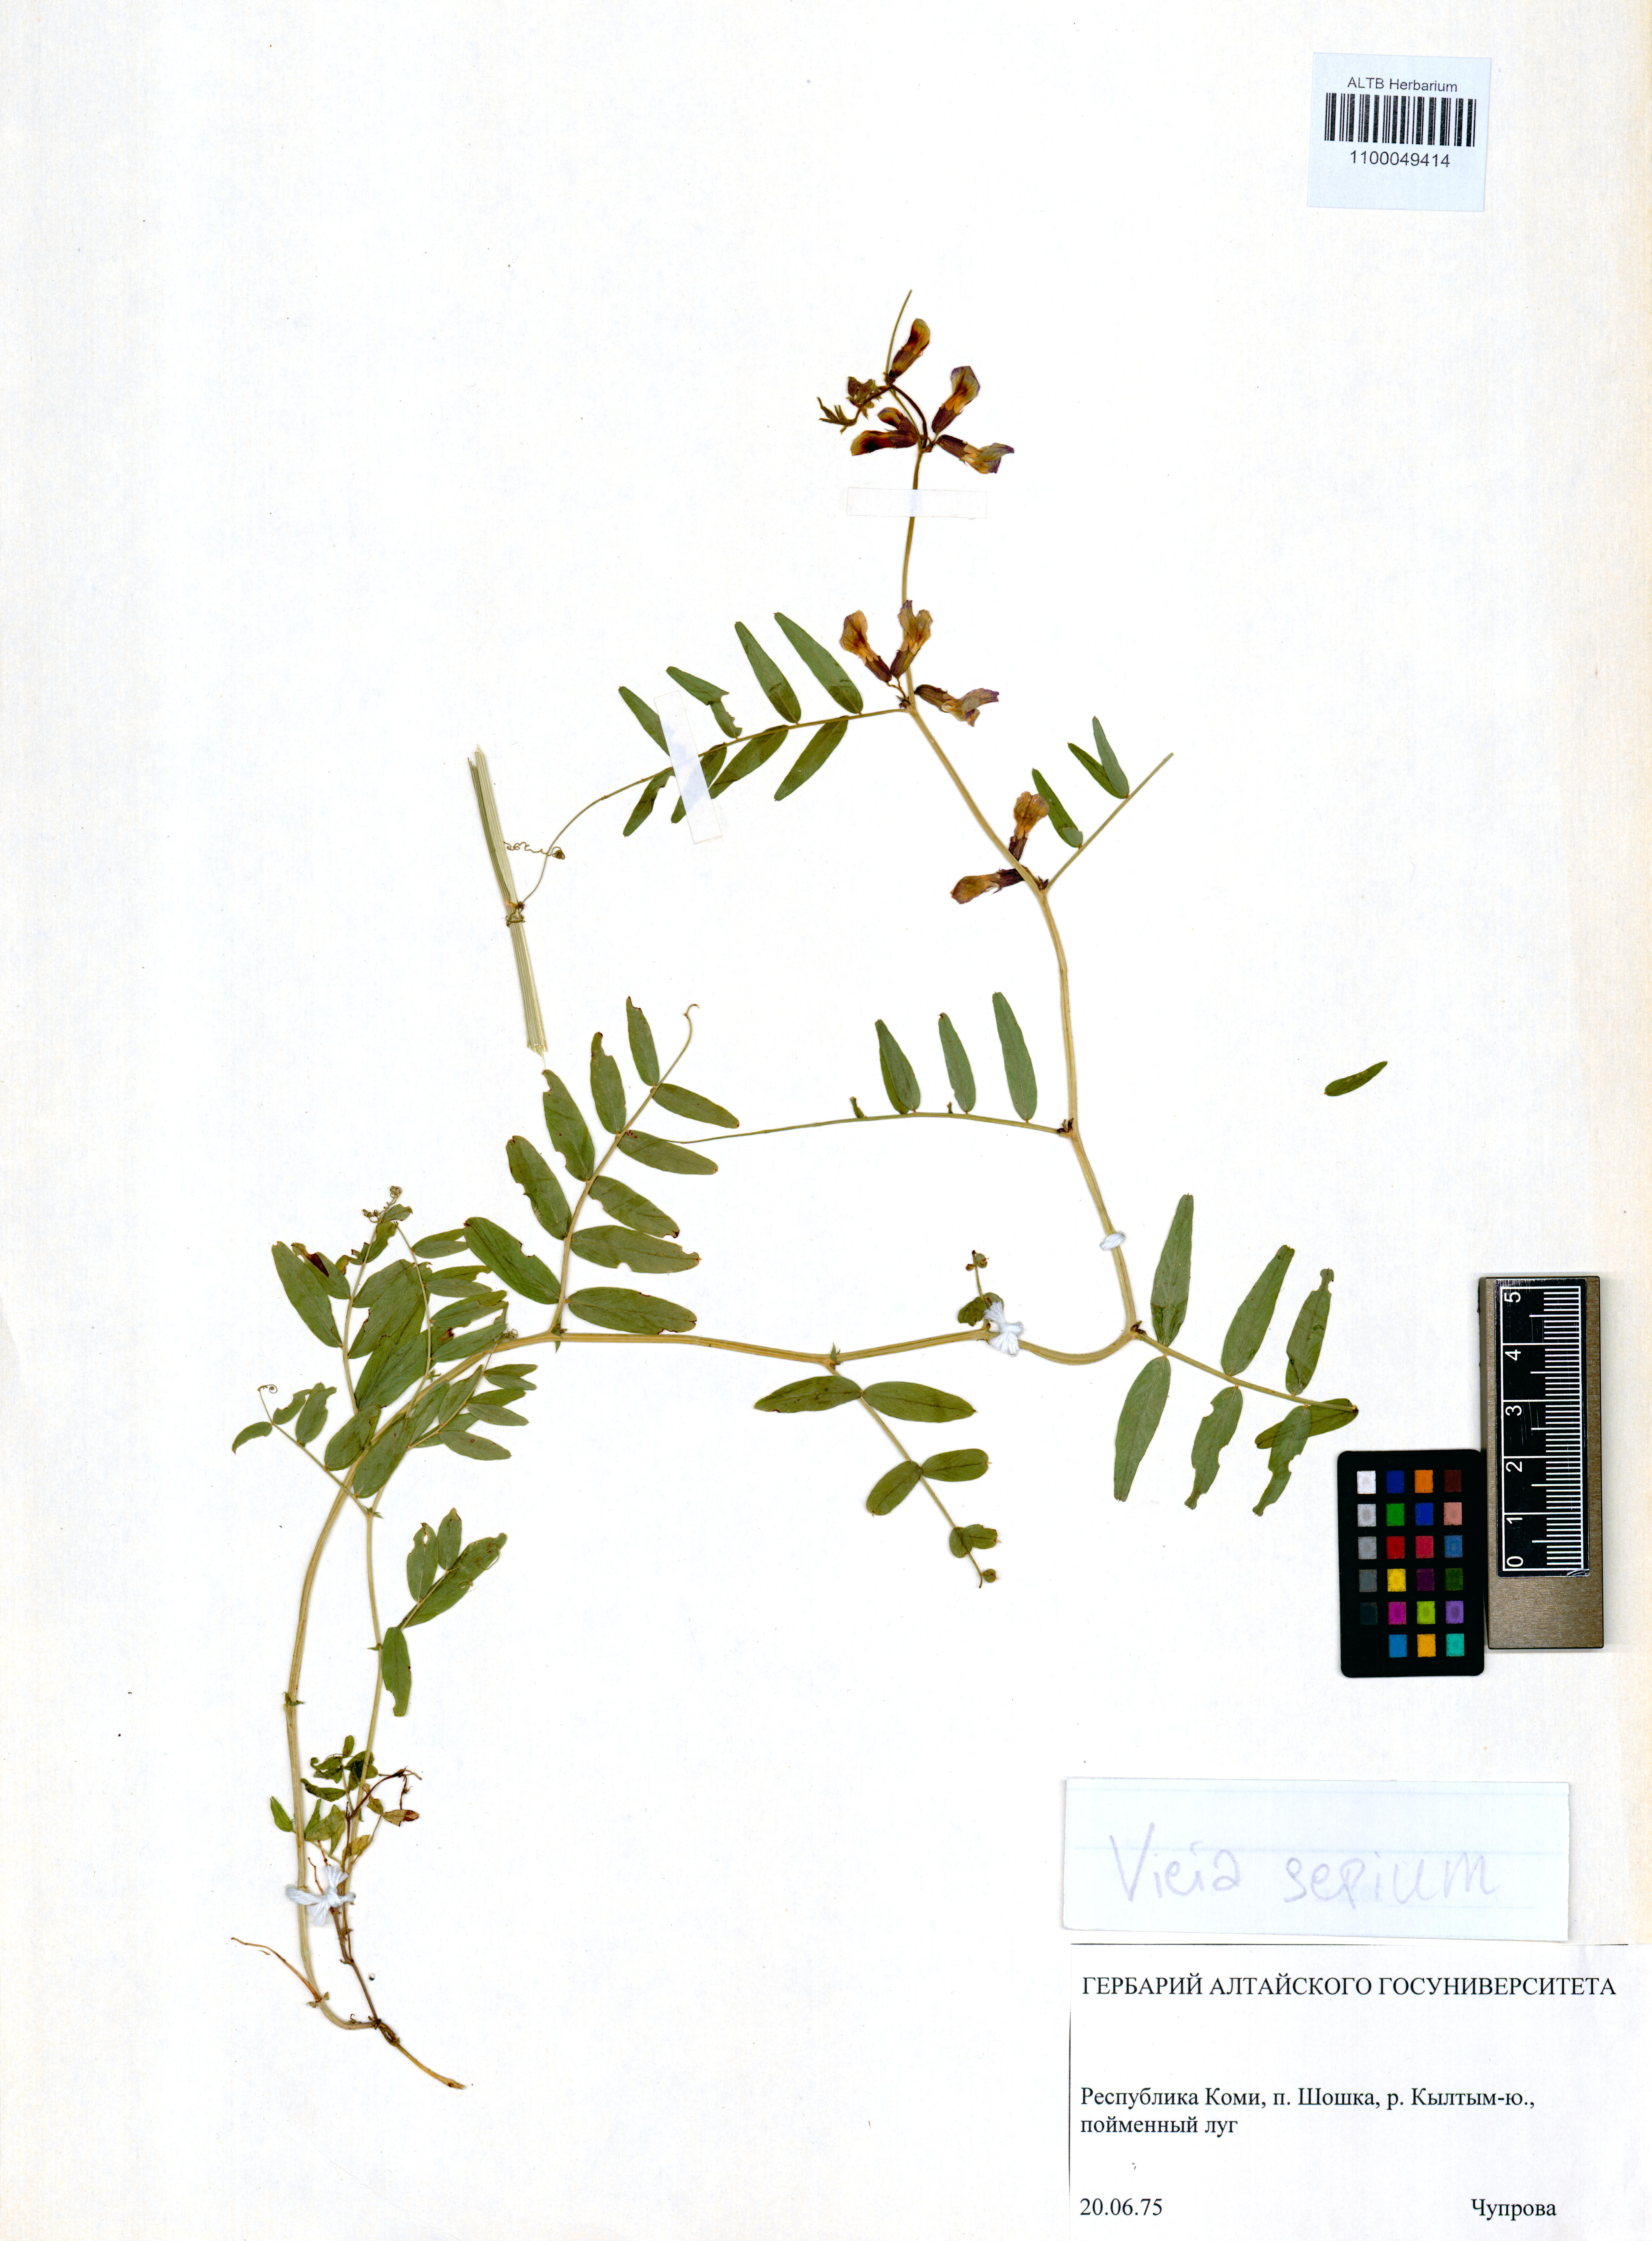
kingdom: Plantae
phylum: Tracheophyta
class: Magnoliopsida
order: Fabales
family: Fabaceae
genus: Vicia
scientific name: Vicia sepium
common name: Bush vetch
